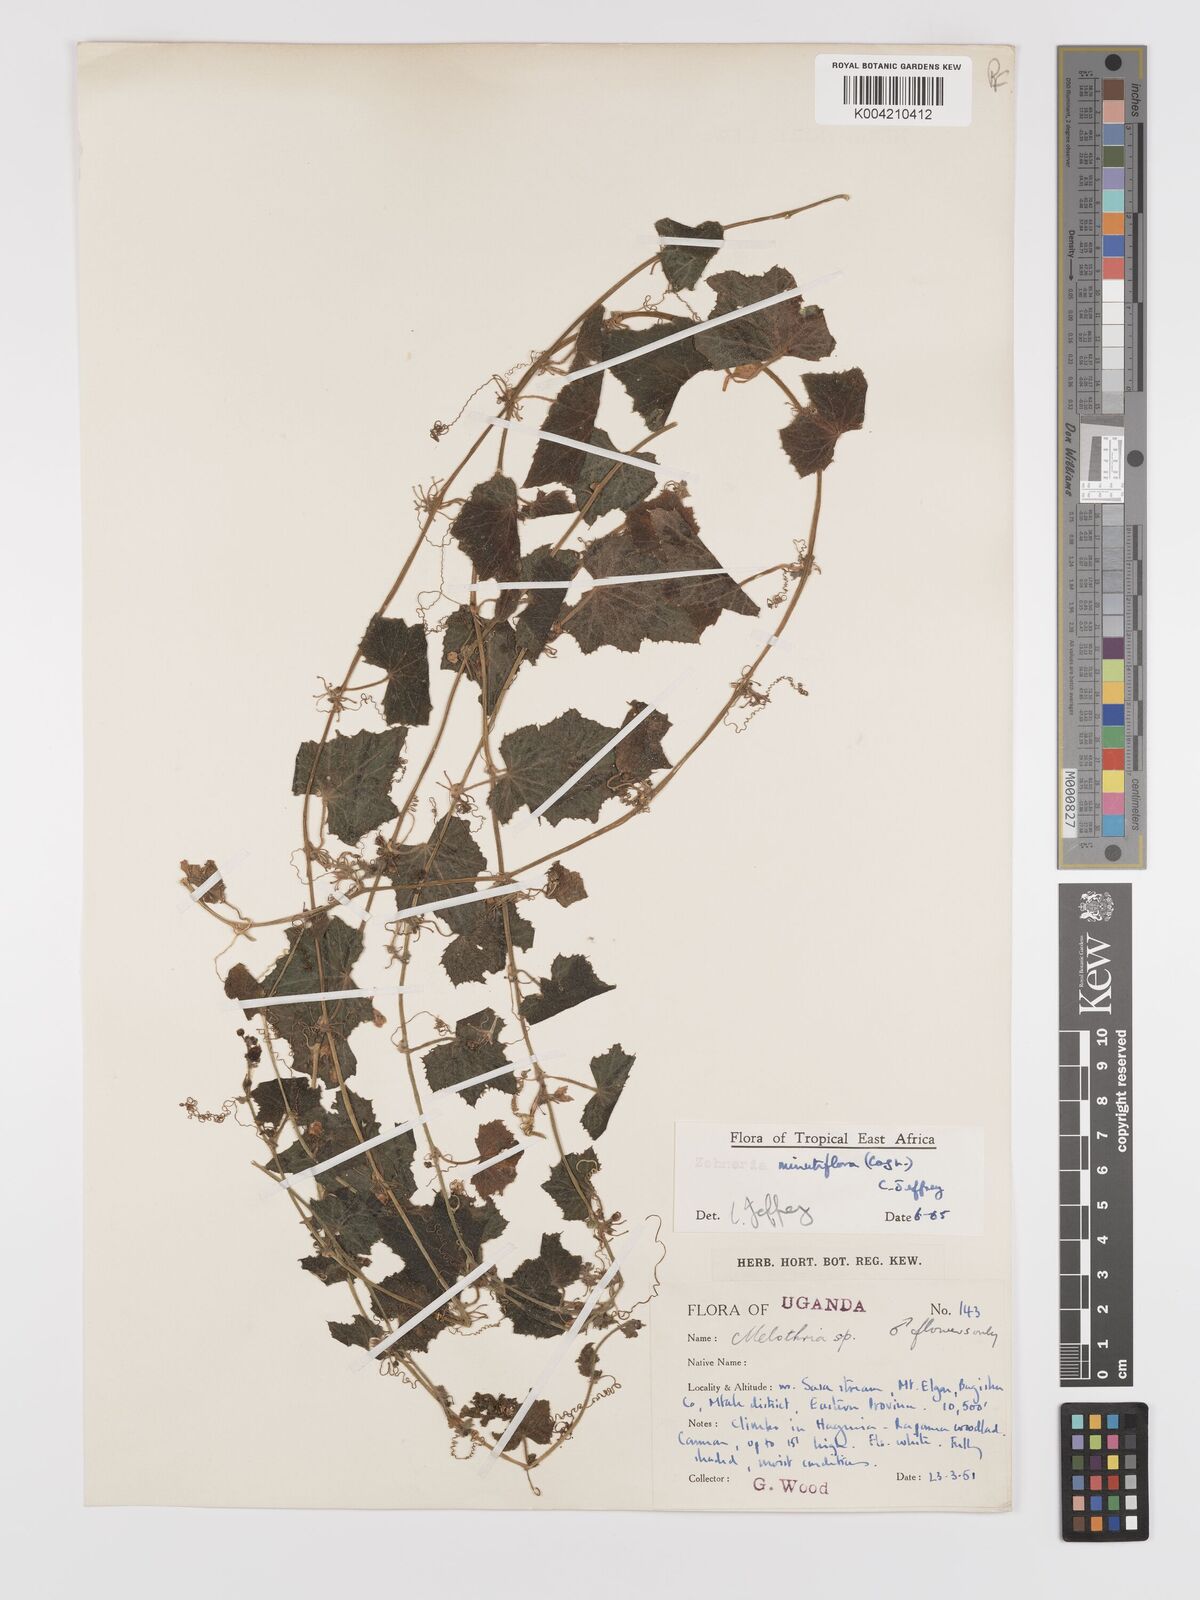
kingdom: Plantae
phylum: Tracheophyta
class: Magnoliopsida
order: Cucurbitales
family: Cucurbitaceae
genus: Zehneria
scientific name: Zehneria minutiflora
